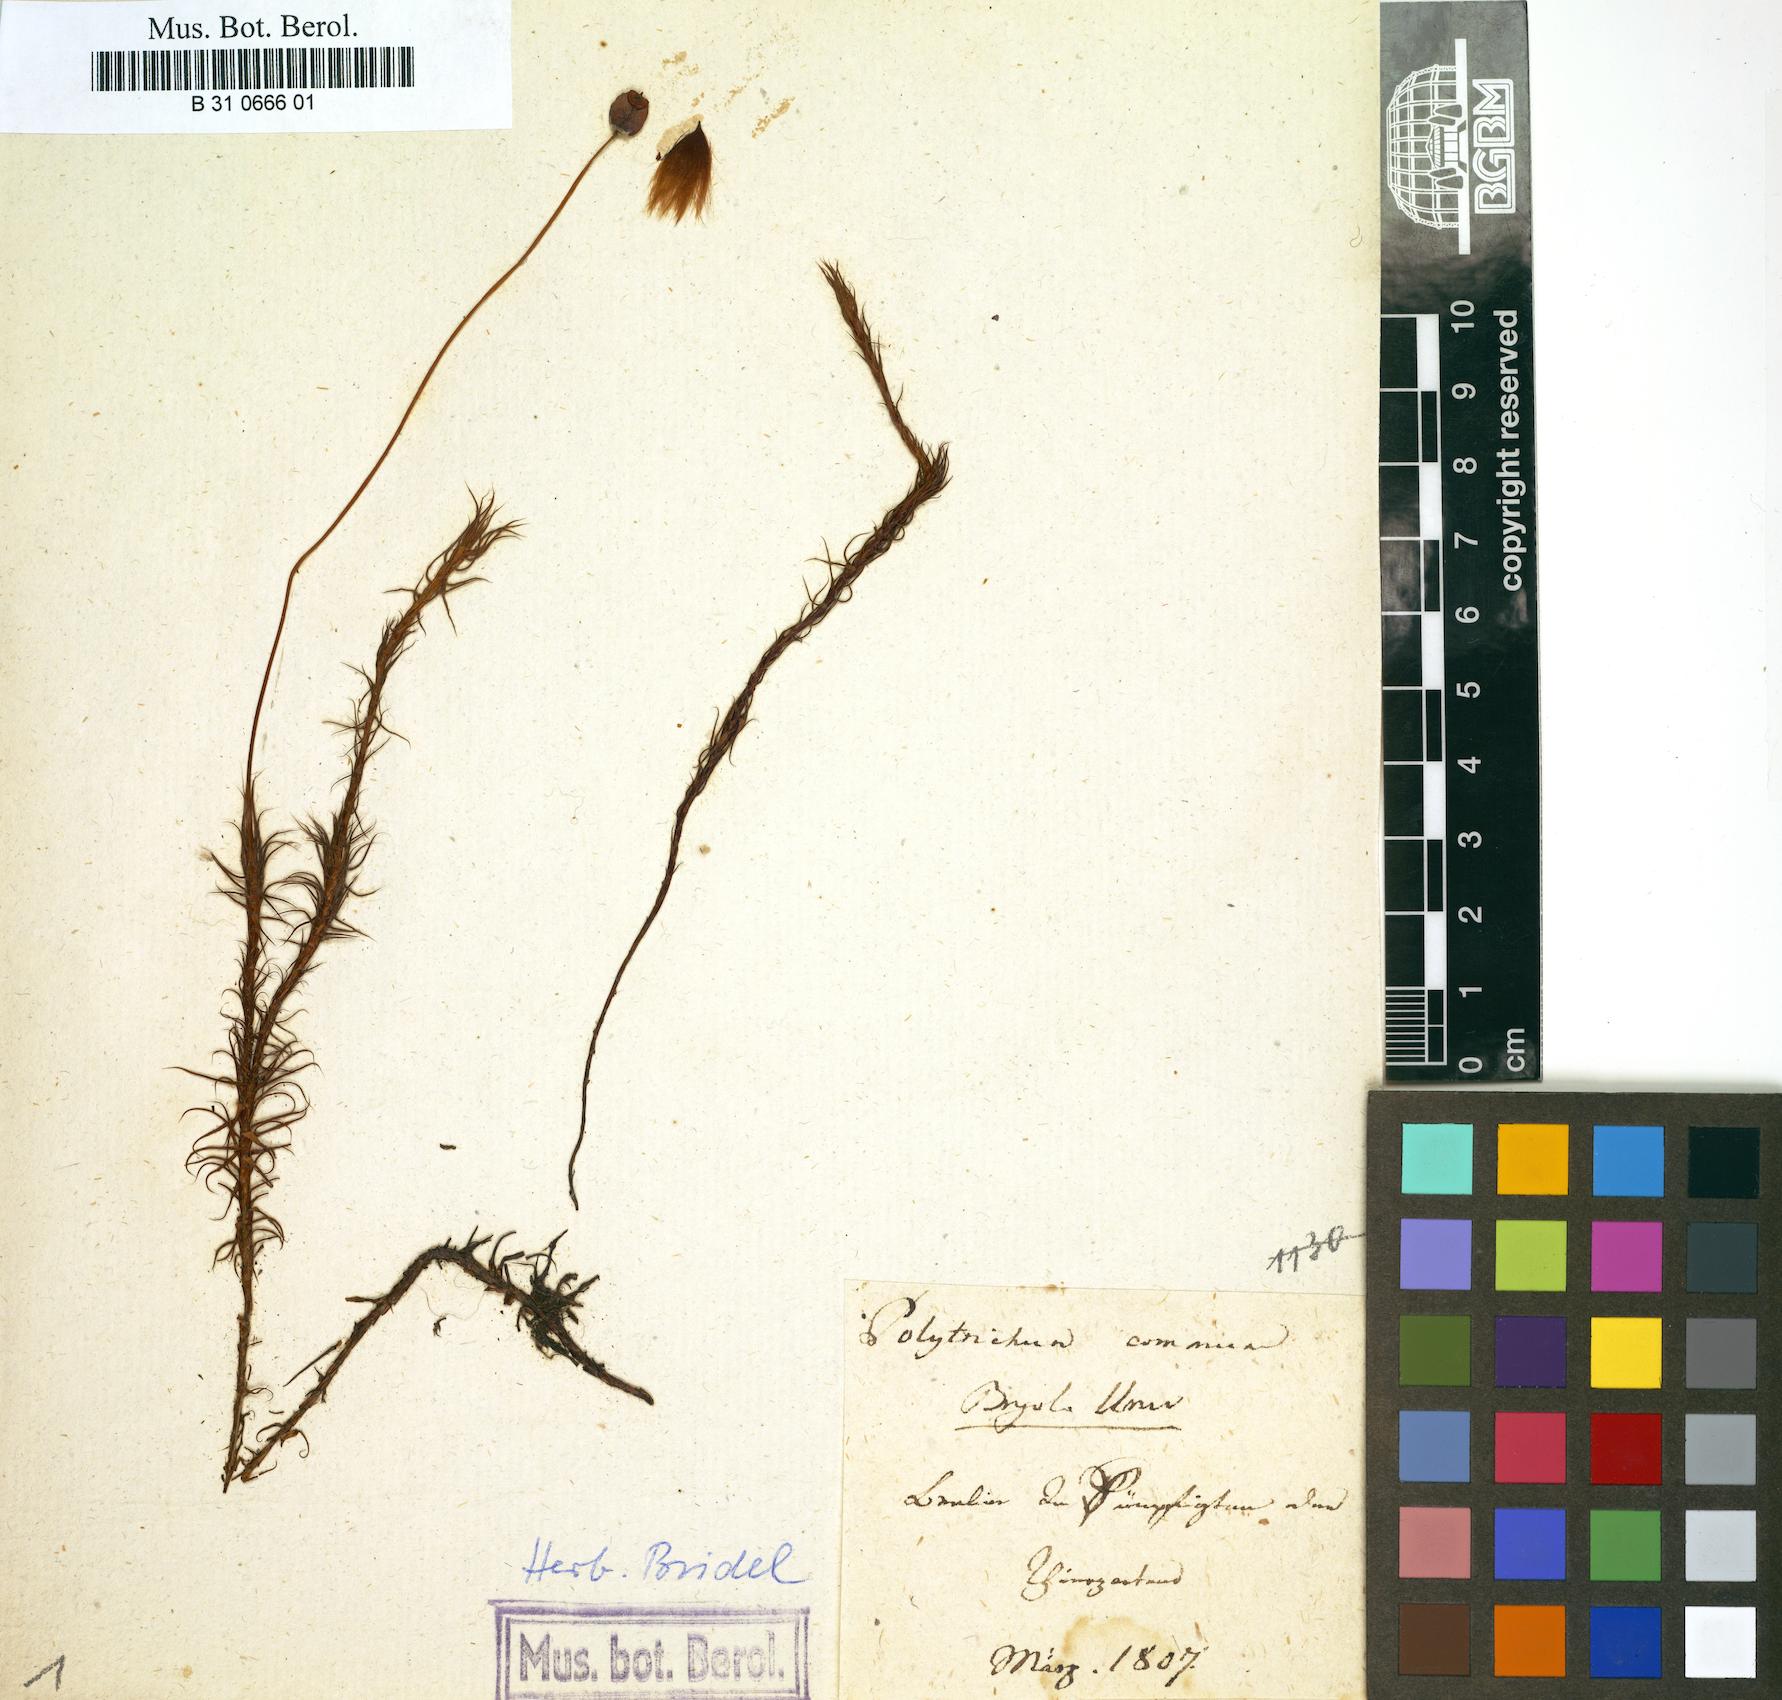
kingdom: Plantae
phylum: Bryophyta
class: Polytrichopsida
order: Polytrichales
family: Polytrichaceae
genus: Polytrichum
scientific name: Polytrichum commune
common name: Common haircap
